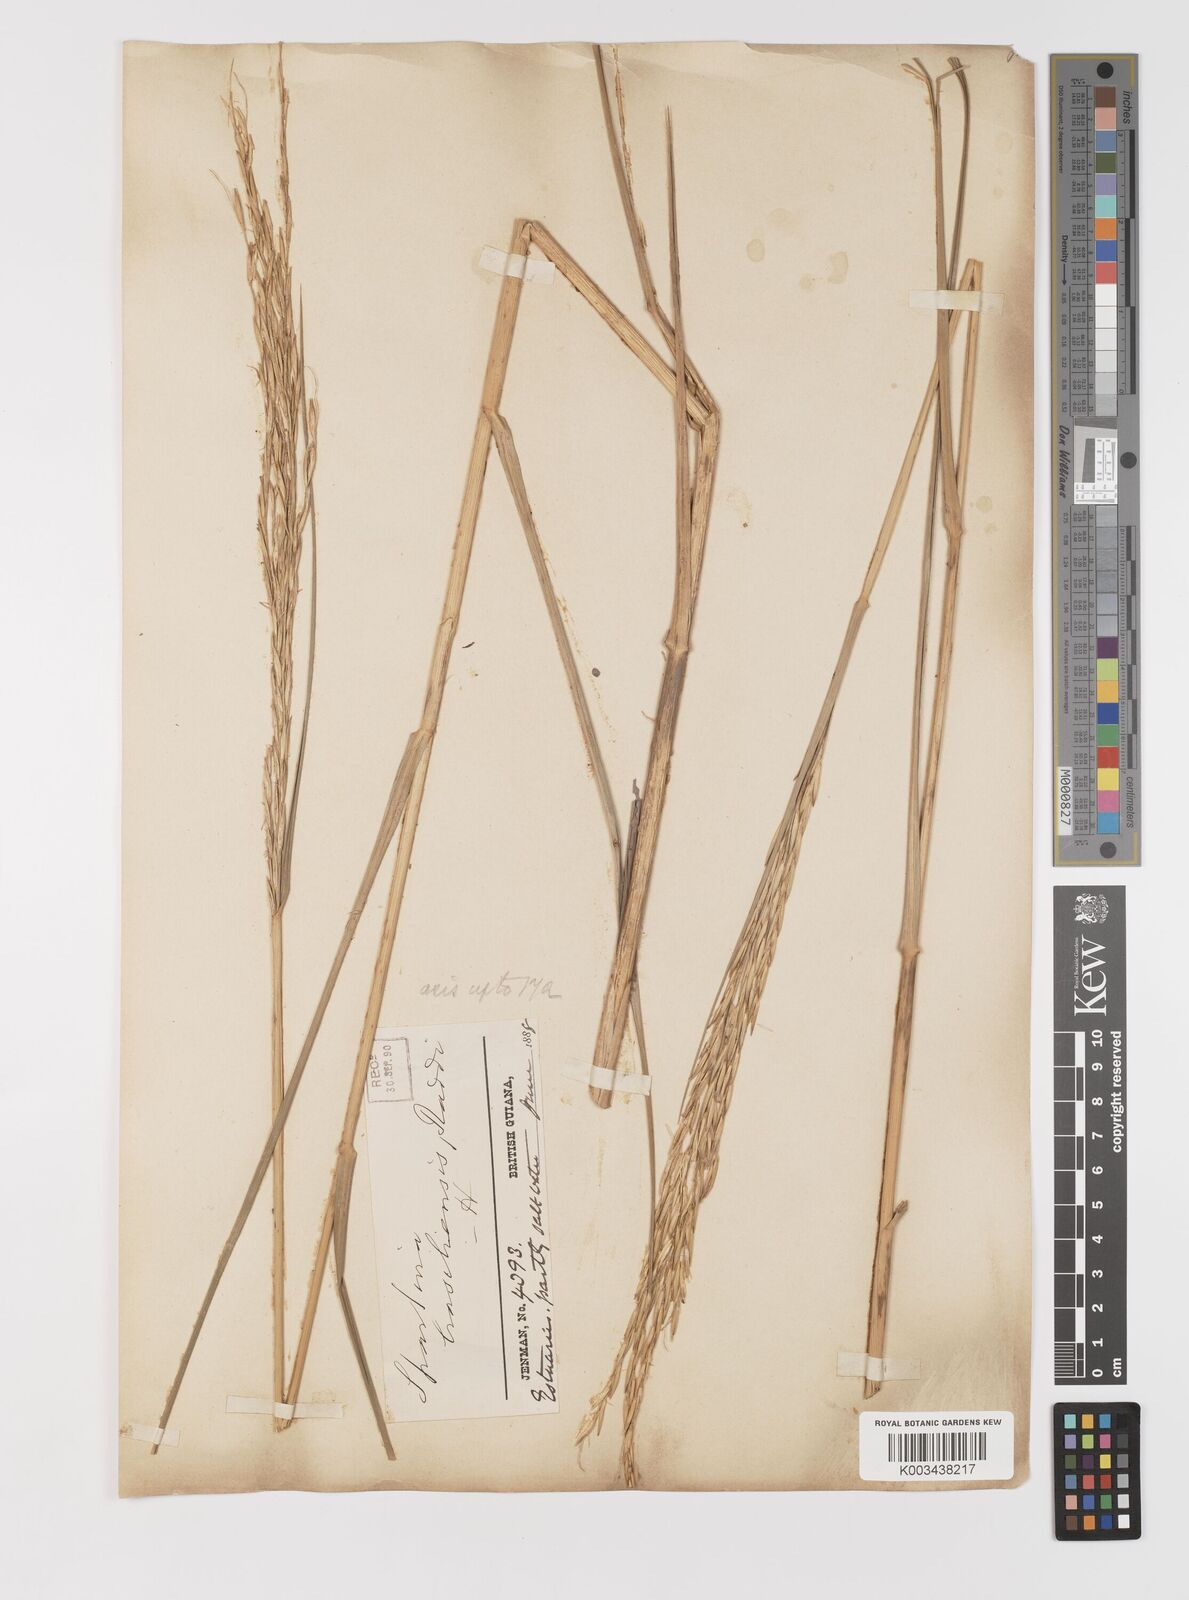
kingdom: Plantae
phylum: Tracheophyta
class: Liliopsida
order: Poales
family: Poaceae
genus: Sporobolus
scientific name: Sporobolus alterniflorus
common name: Atlantic cordgrass
